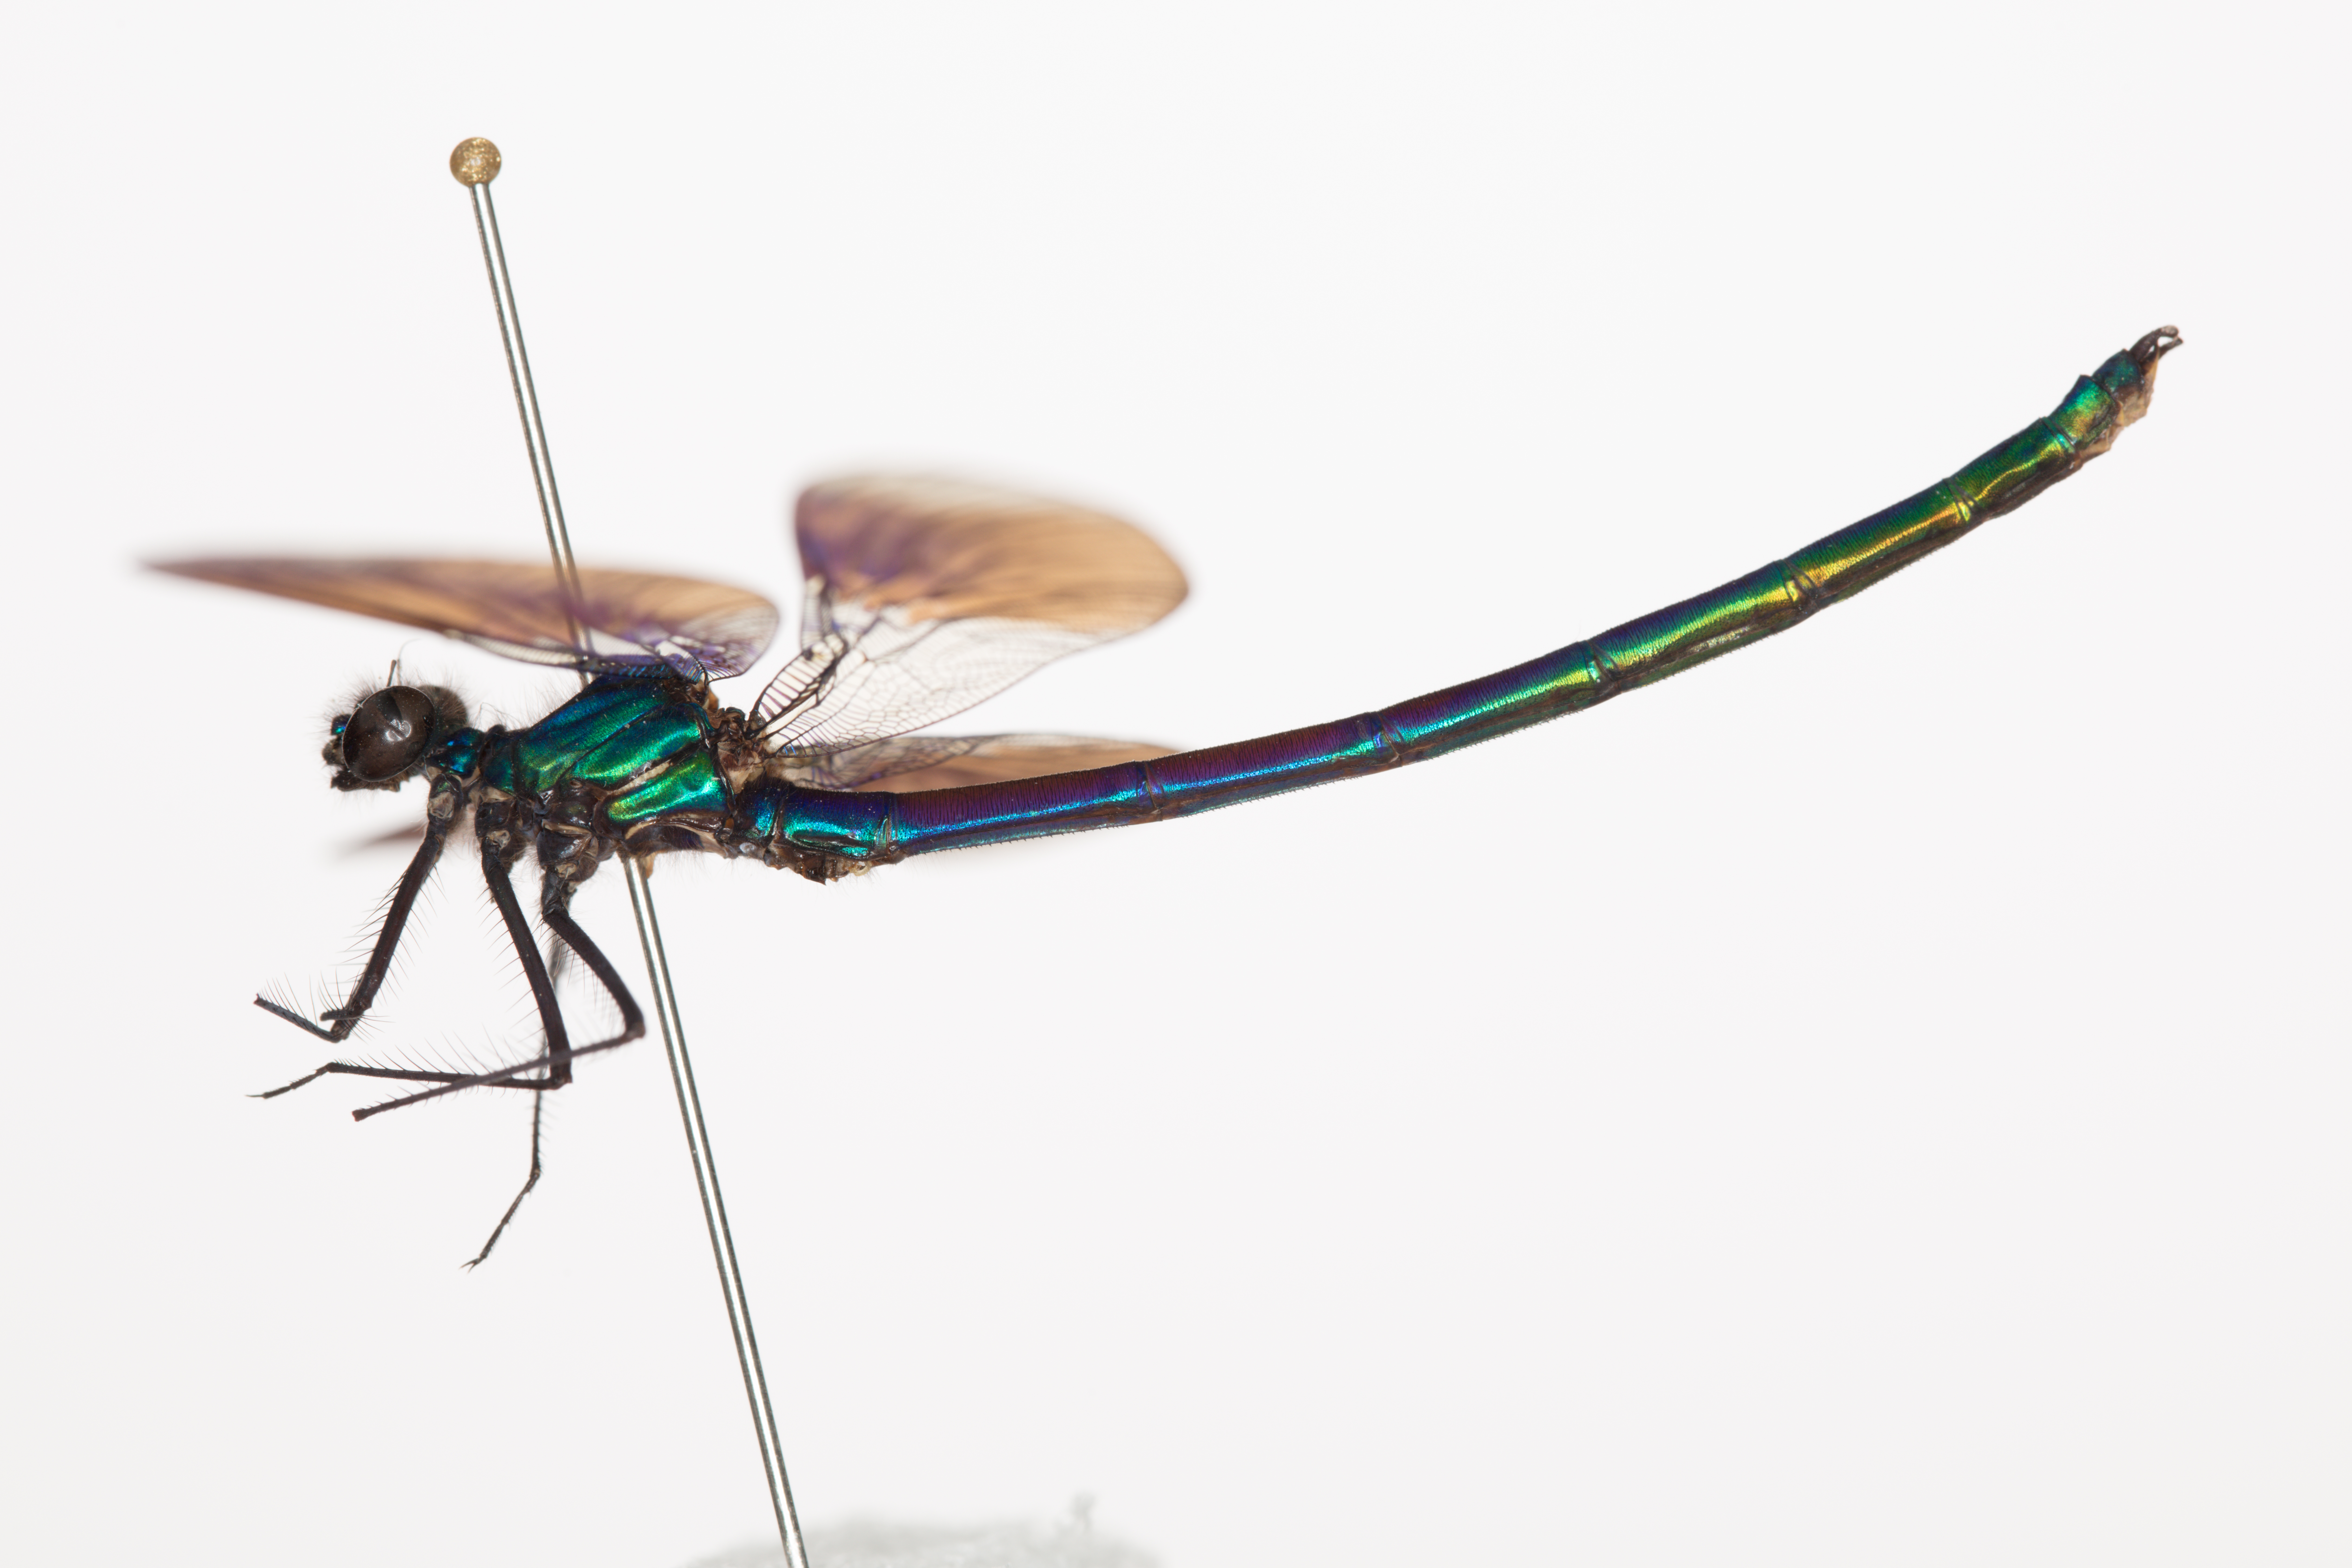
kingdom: Animalia
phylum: Arthropoda
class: Insecta
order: Odonata
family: Calopterygidae
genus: Calopteryx
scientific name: Calopteryx splendens
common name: Banded demoiselle
